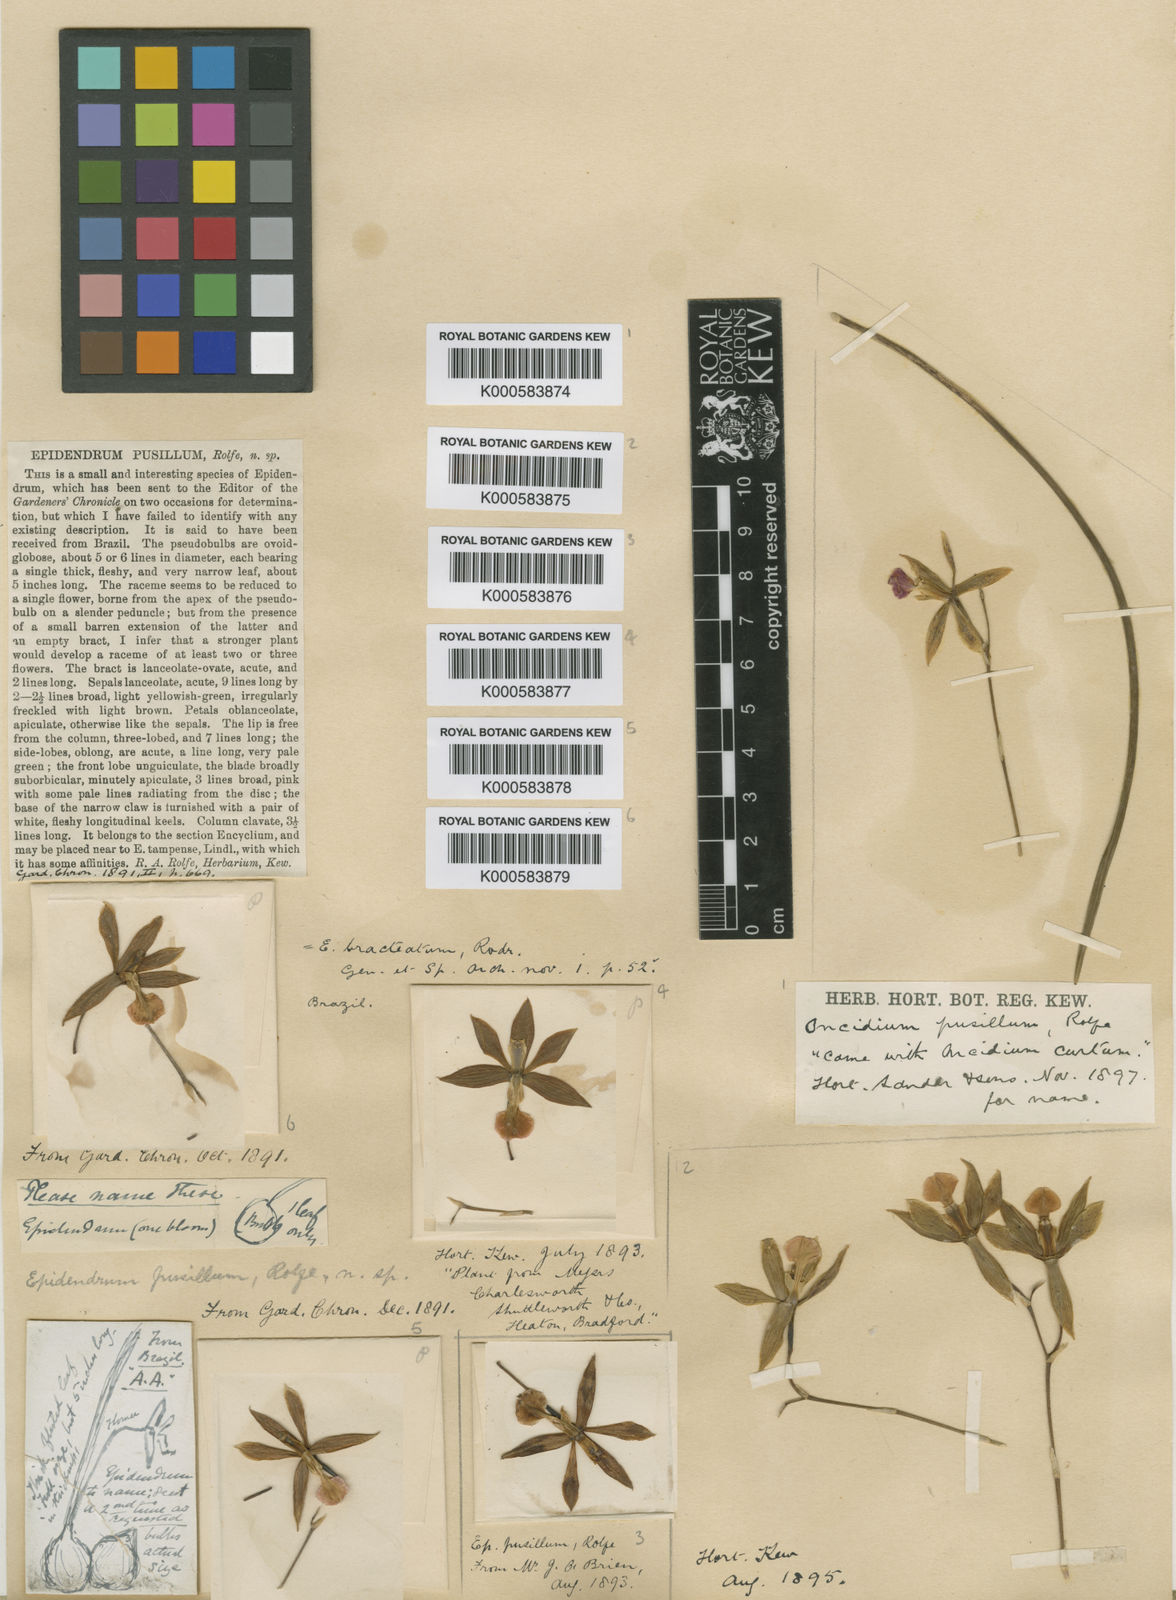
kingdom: Plantae
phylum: Tracheophyta
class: Liliopsida
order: Asparagales
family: Orchidaceae
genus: Encyclia
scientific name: Encyclia
